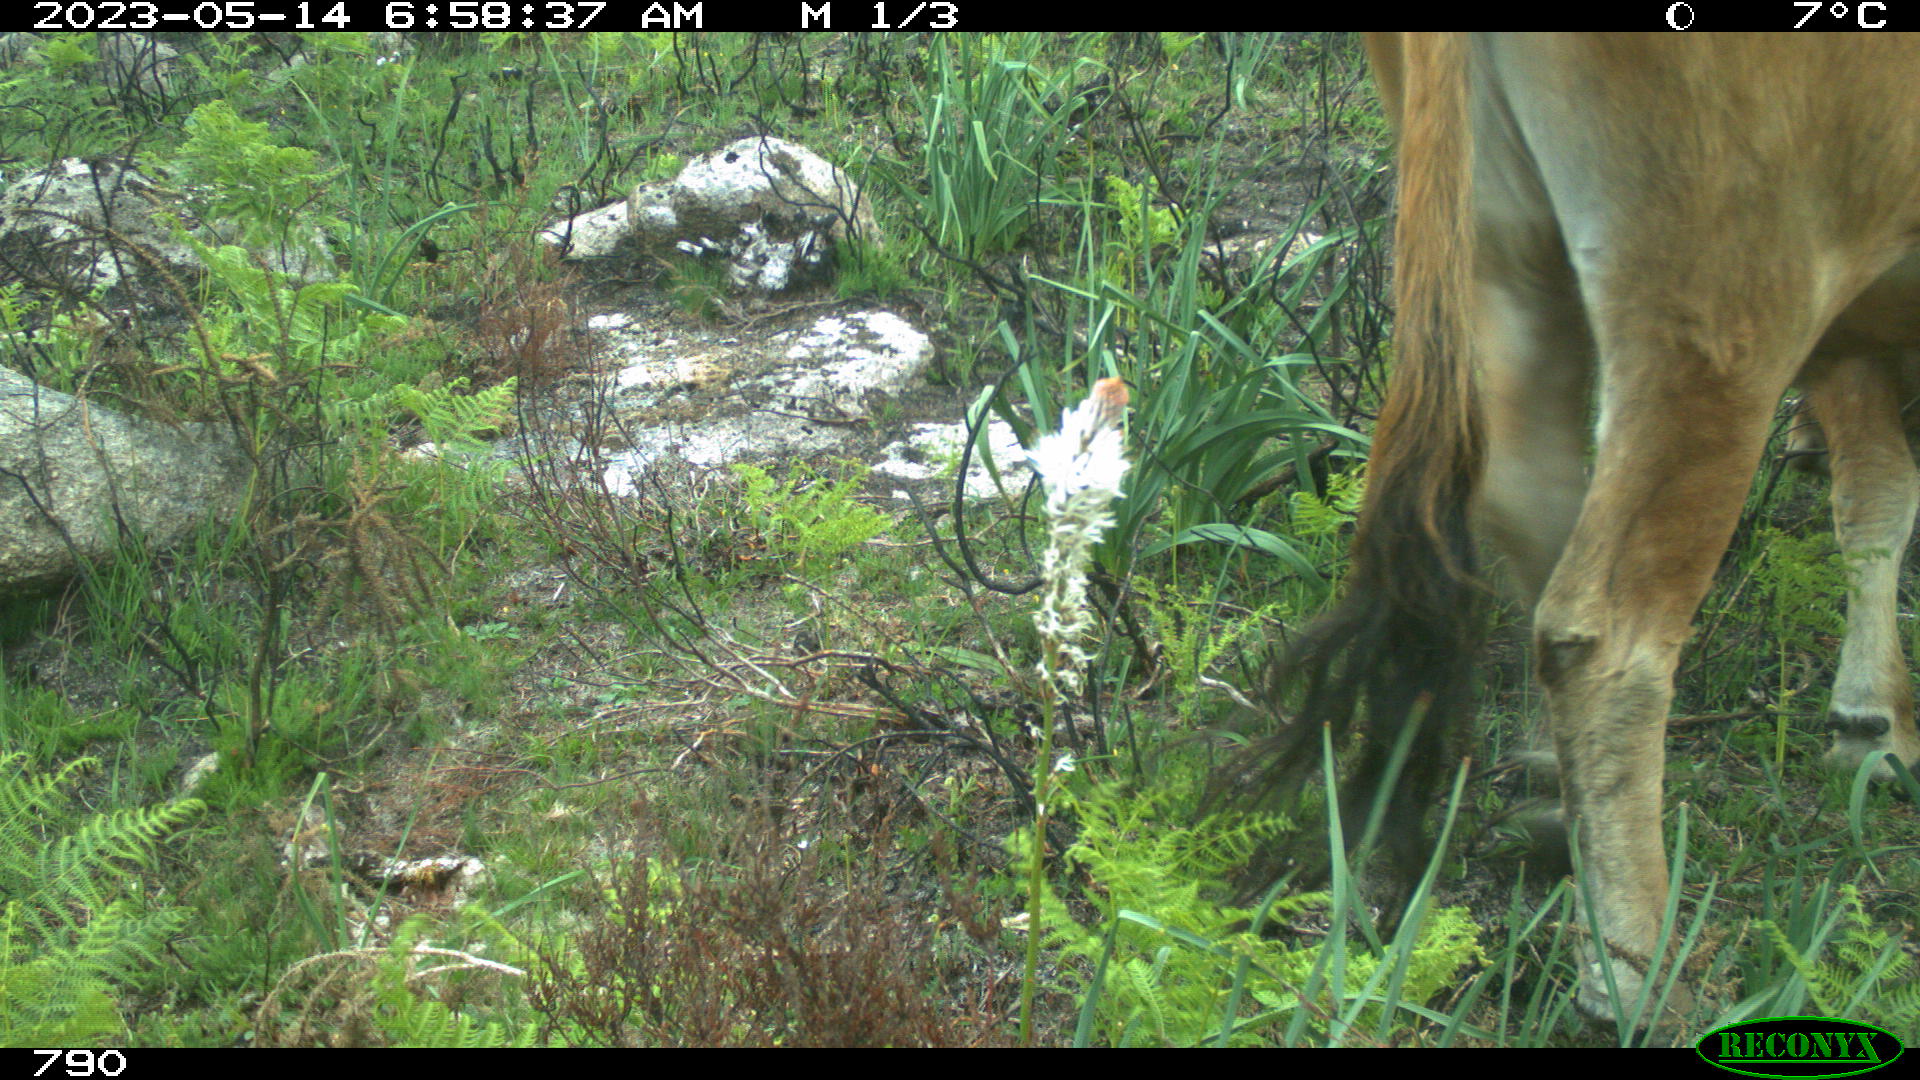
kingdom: Animalia
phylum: Chordata
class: Mammalia
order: Artiodactyla
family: Bovidae
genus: Bos
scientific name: Bos taurus
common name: Domesticated cattle
